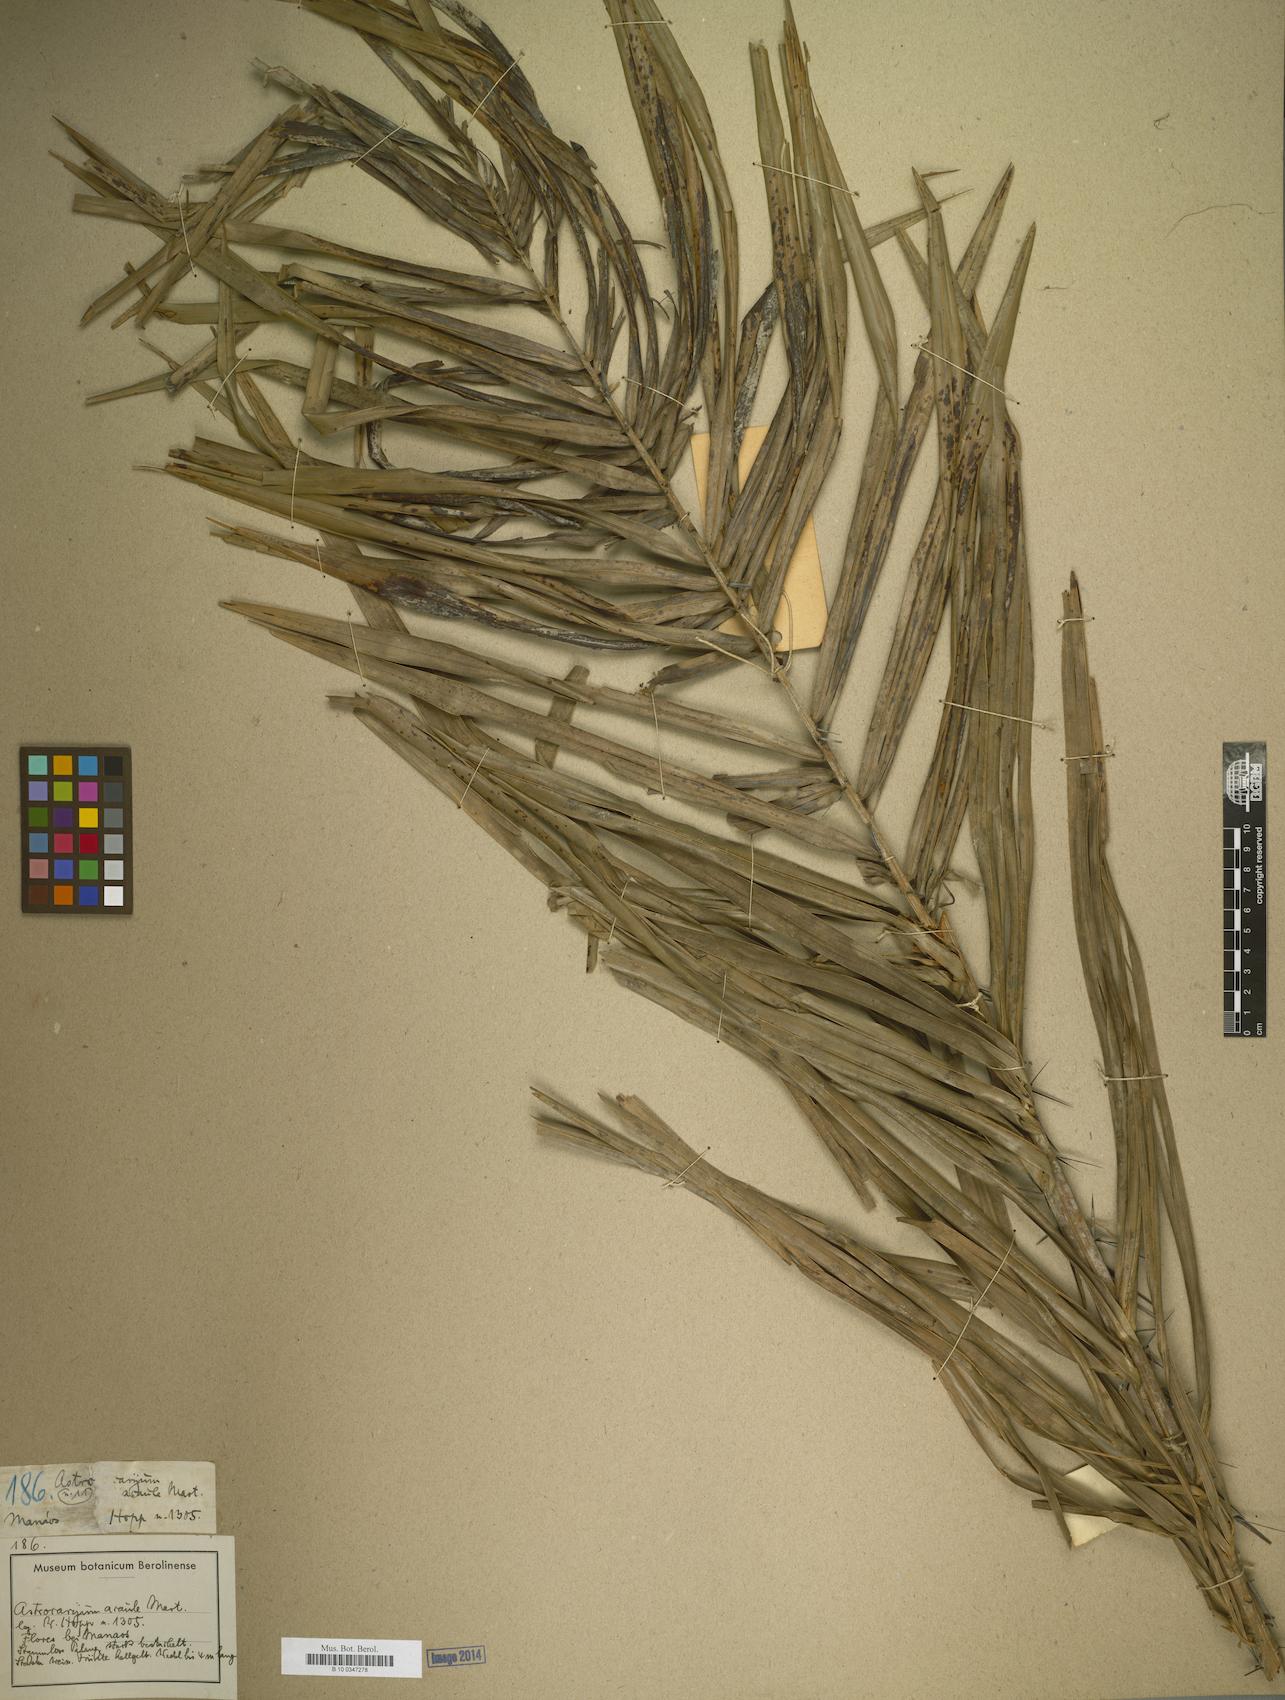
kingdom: Plantae
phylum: Tracheophyta
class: Liliopsida
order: Arecales
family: Arecaceae
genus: Astrocaryum
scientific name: Astrocaryum
